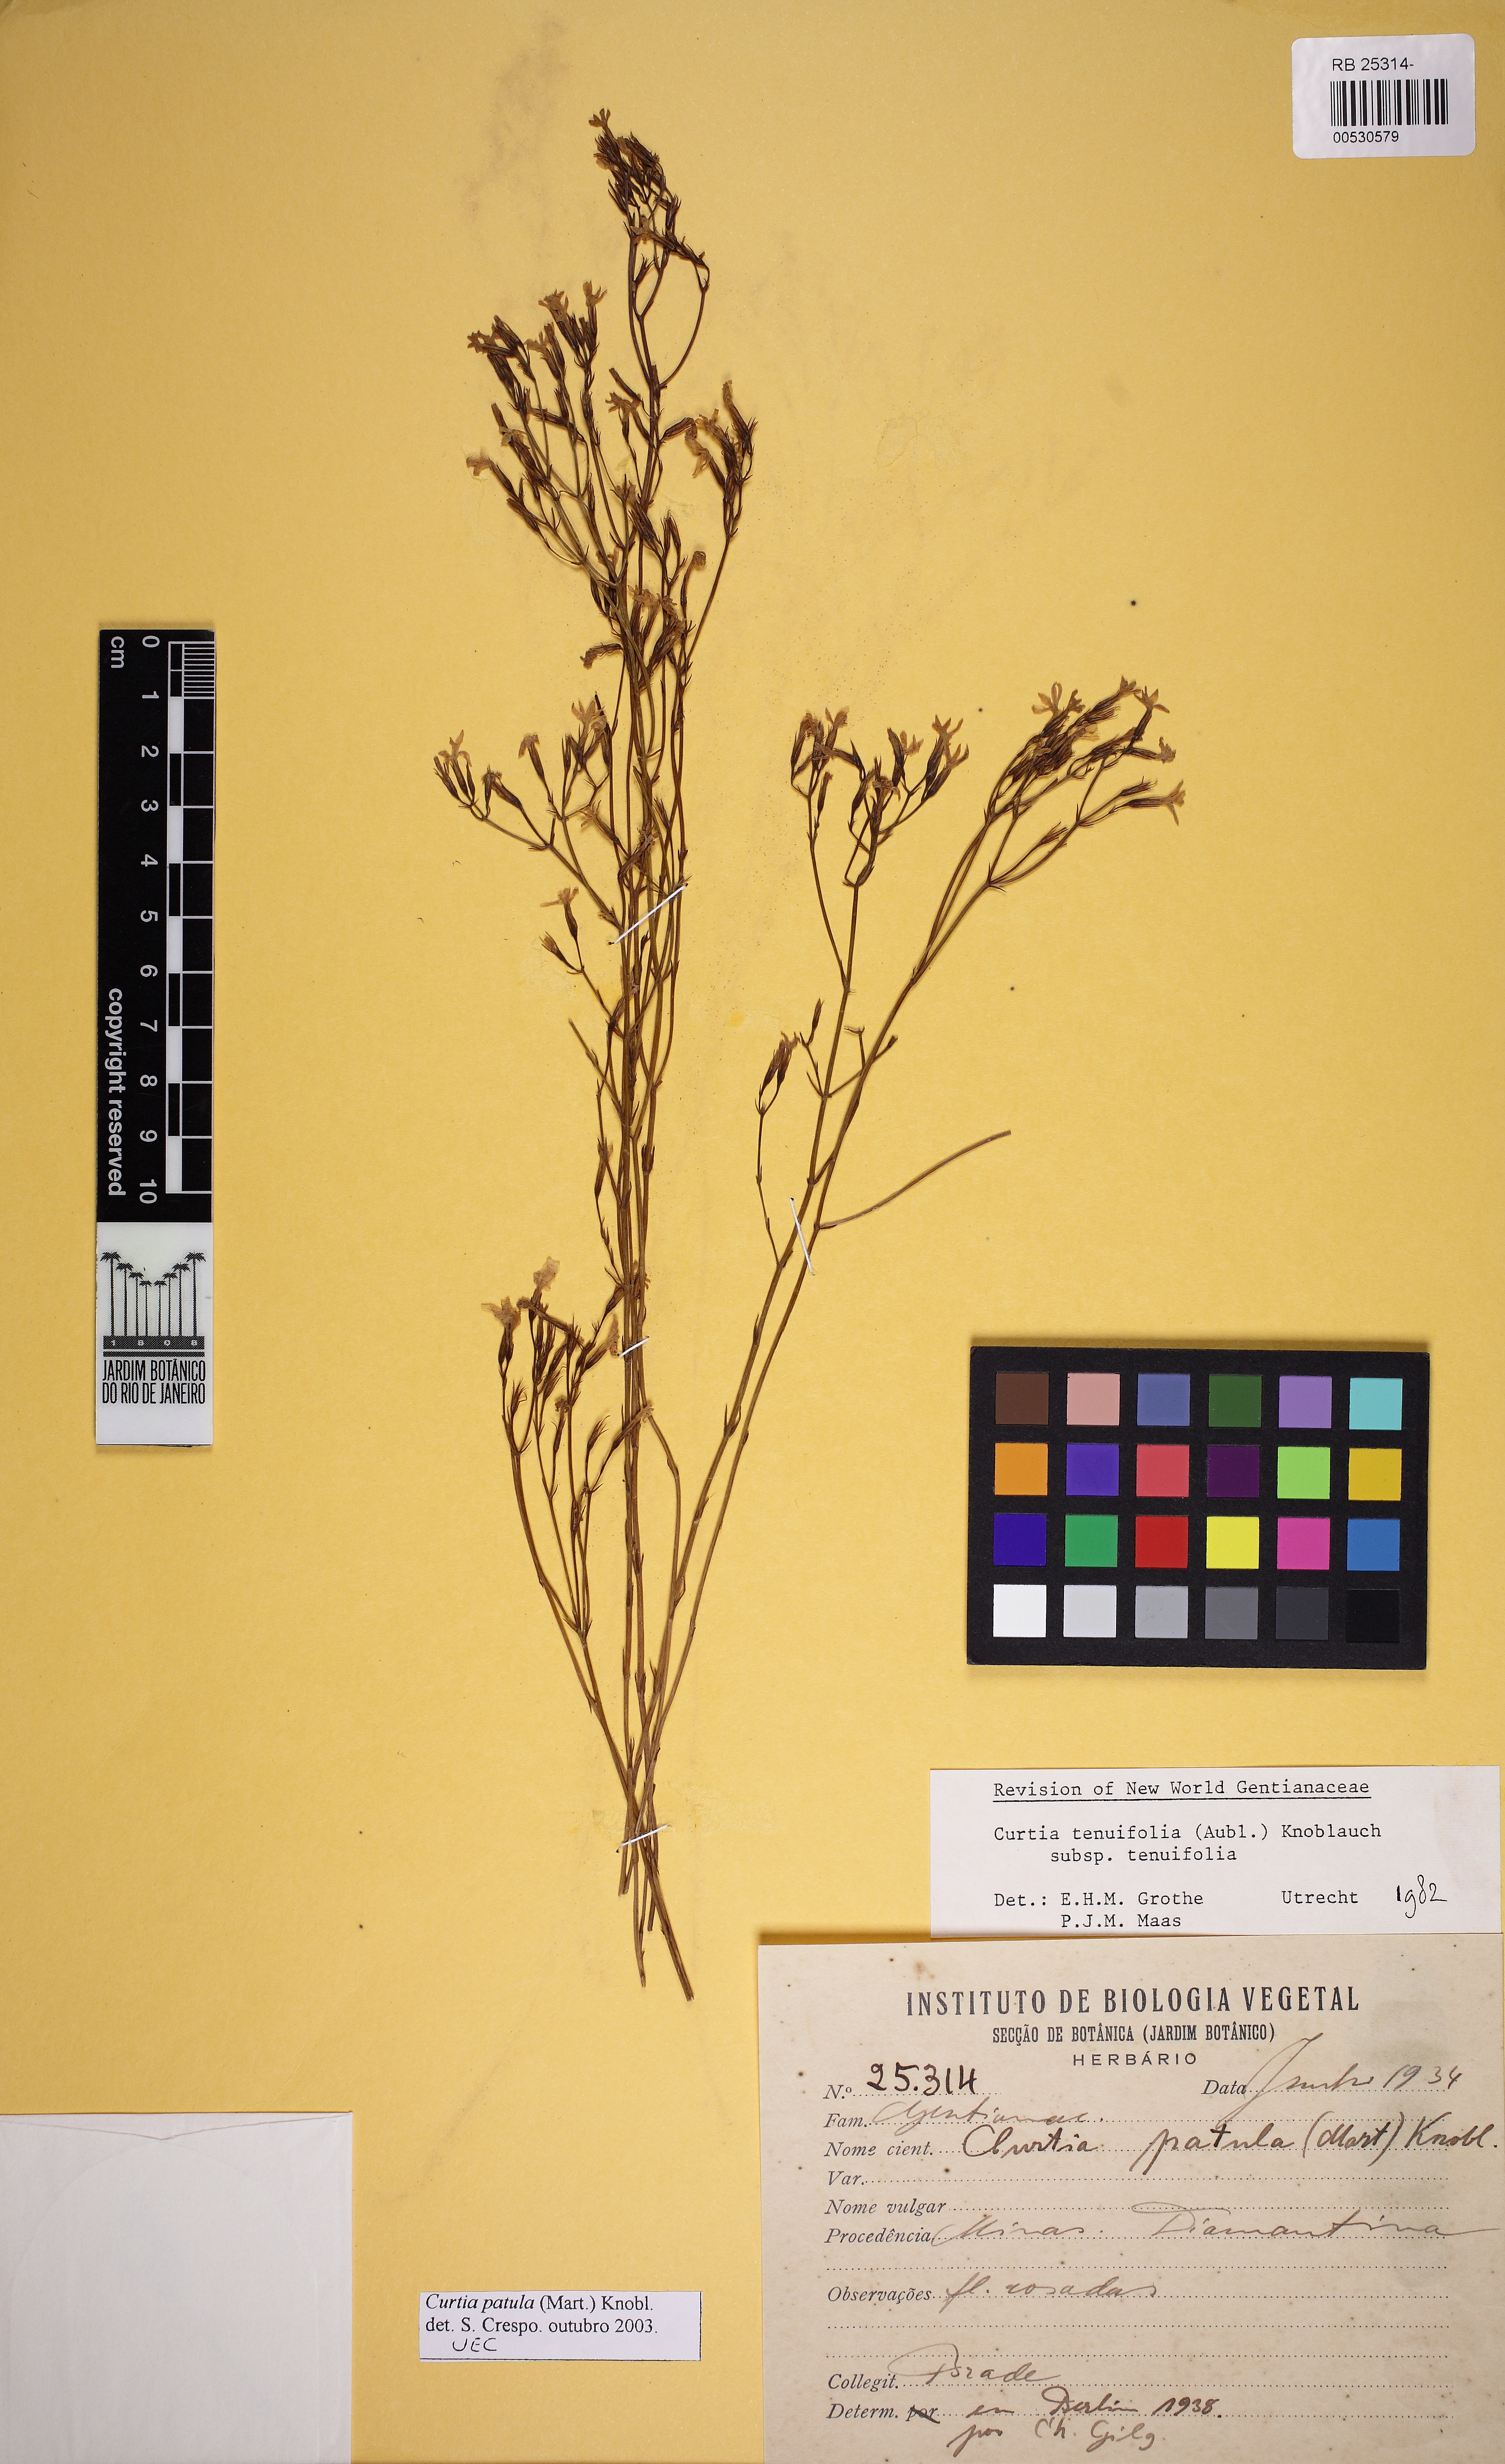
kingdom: Plantae
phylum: Tracheophyta
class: Magnoliopsida
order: Gentianales
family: Gentianaceae
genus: Curtia
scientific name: Curtia tenuifolia
